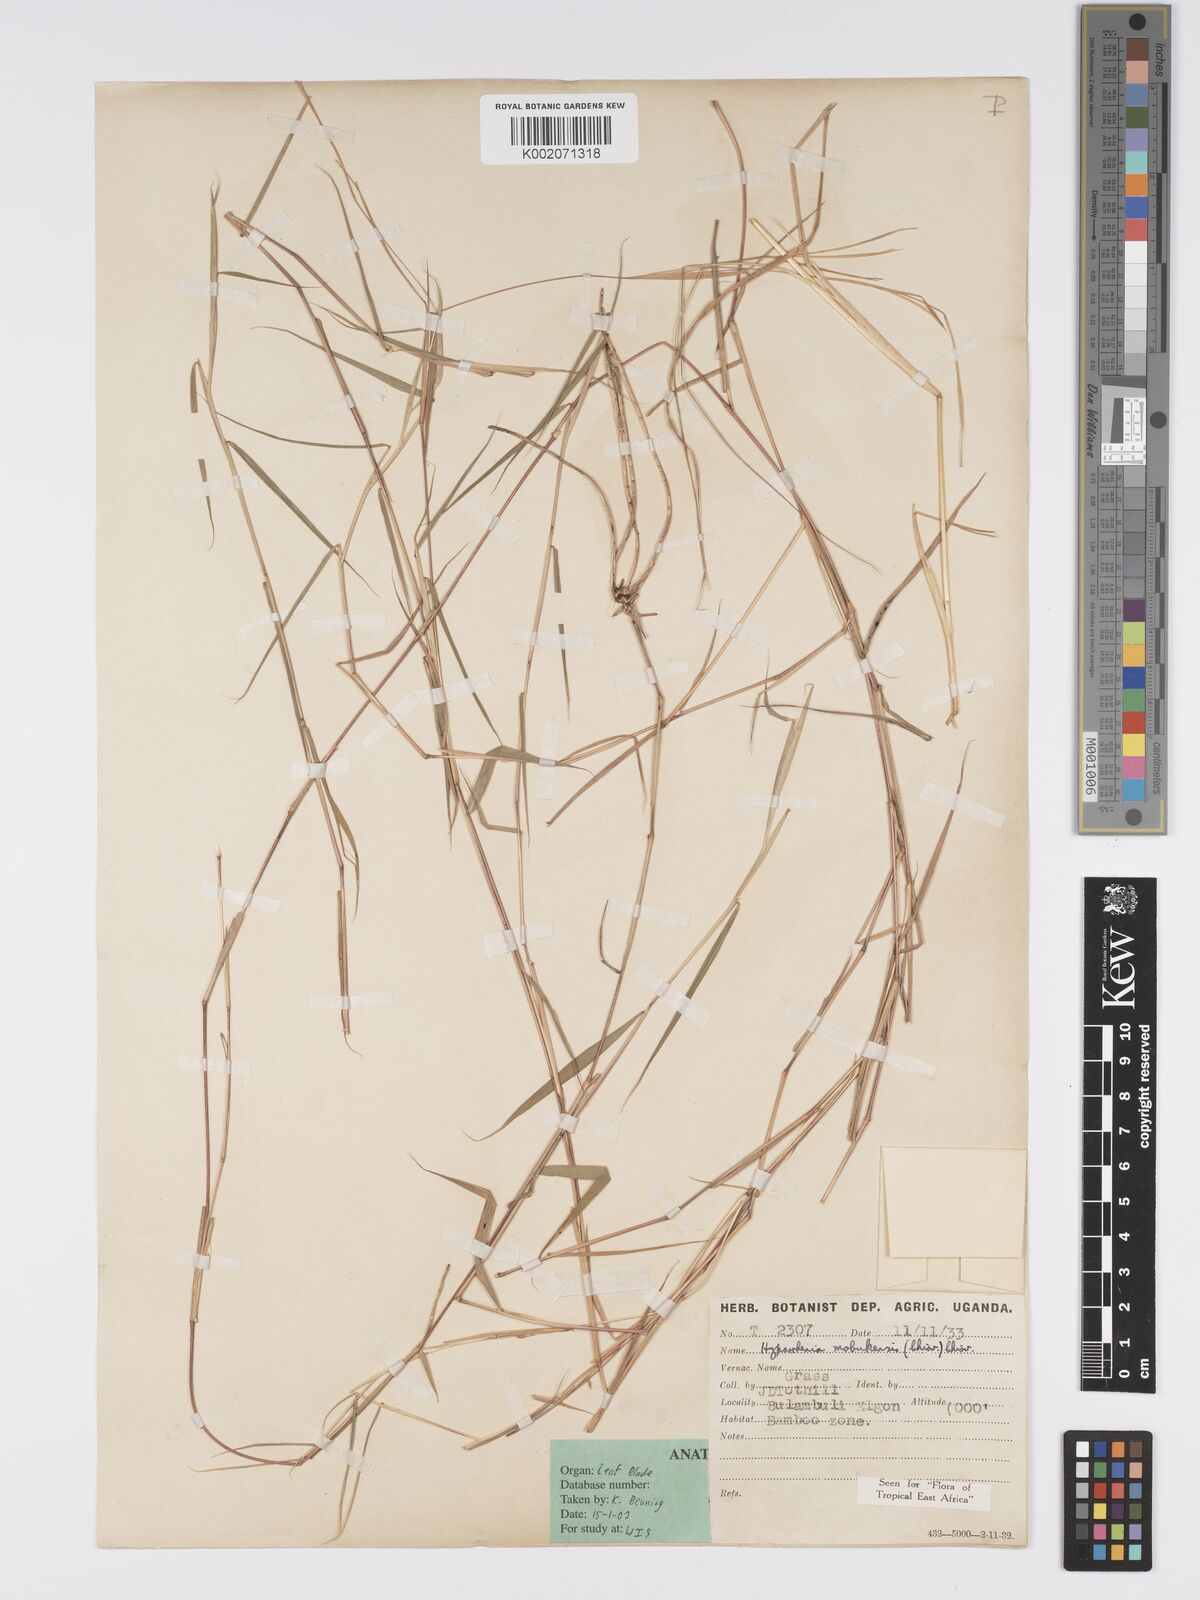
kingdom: Plantae
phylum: Tracheophyta
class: Liliopsida
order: Poales
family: Poaceae
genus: Hyparrhenia
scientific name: Hyparrhenia mobukensis
